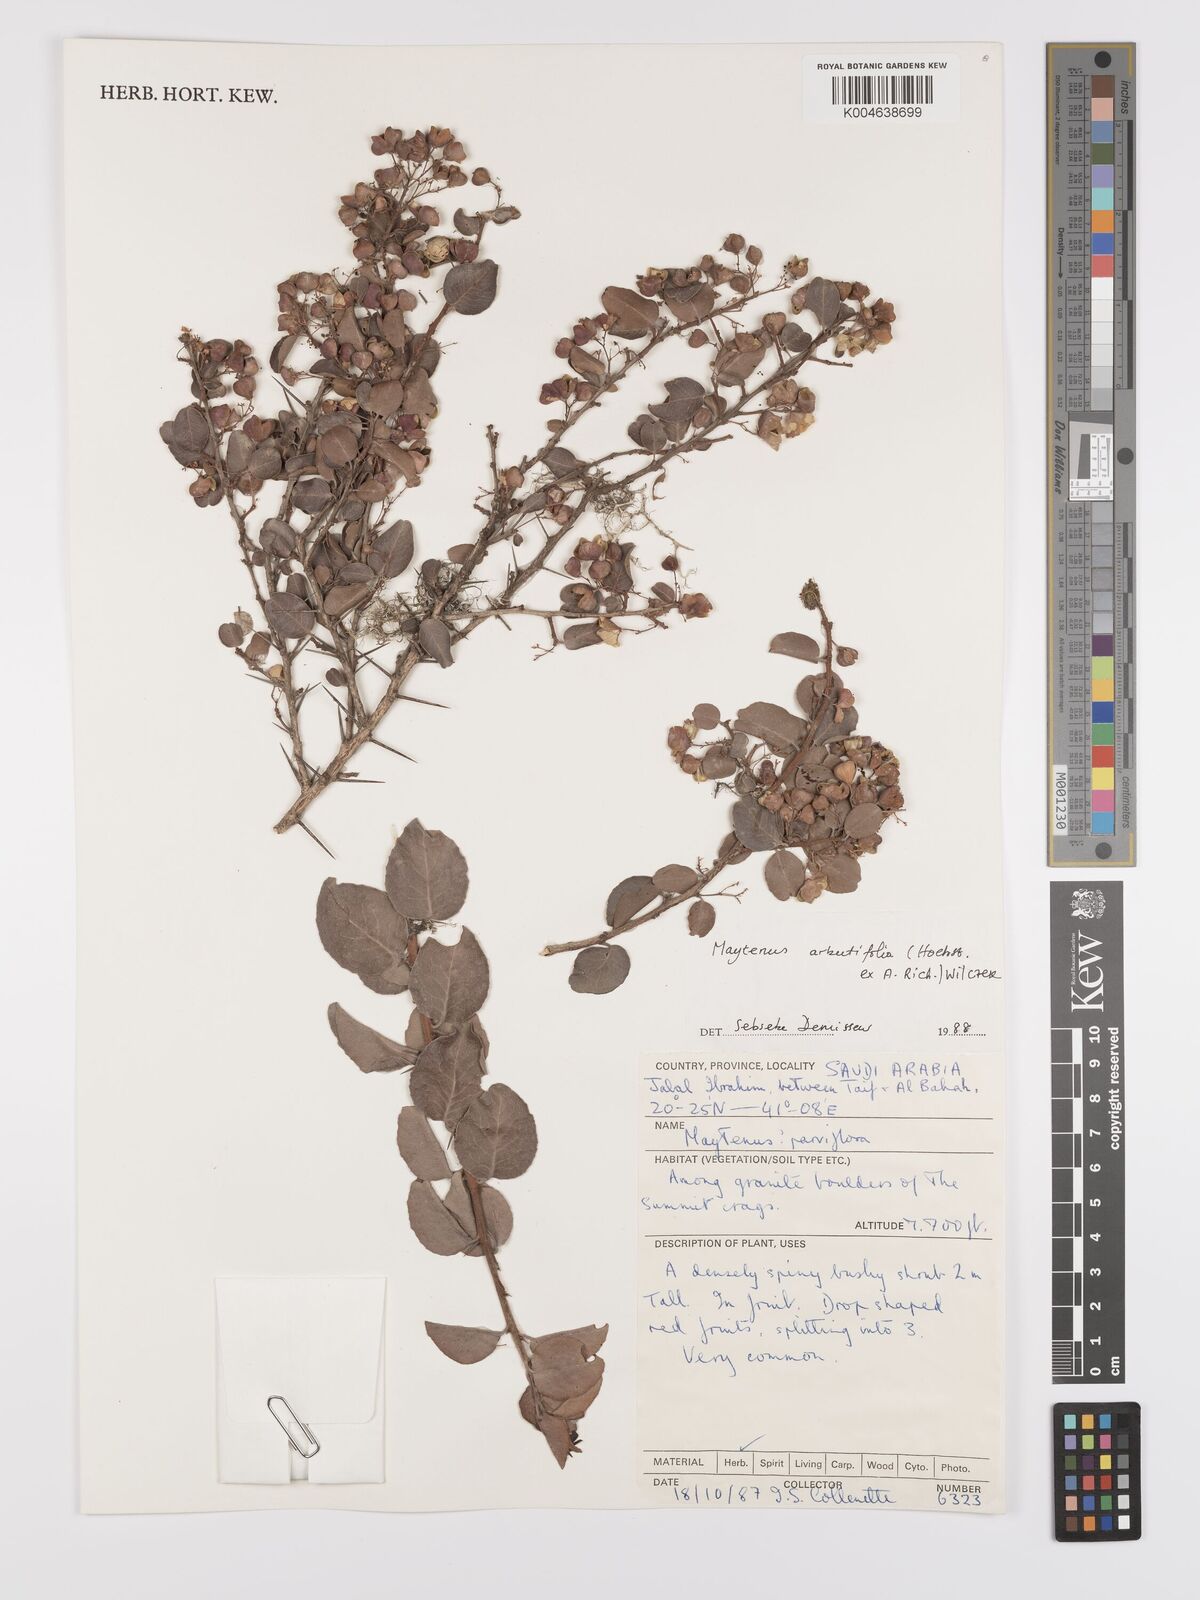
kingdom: Plantae
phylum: Tracheophyta
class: Magnoliopsida
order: Celastrales
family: Celastraceae
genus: Gymnosporia
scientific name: Gymnosporia arbutifolia
